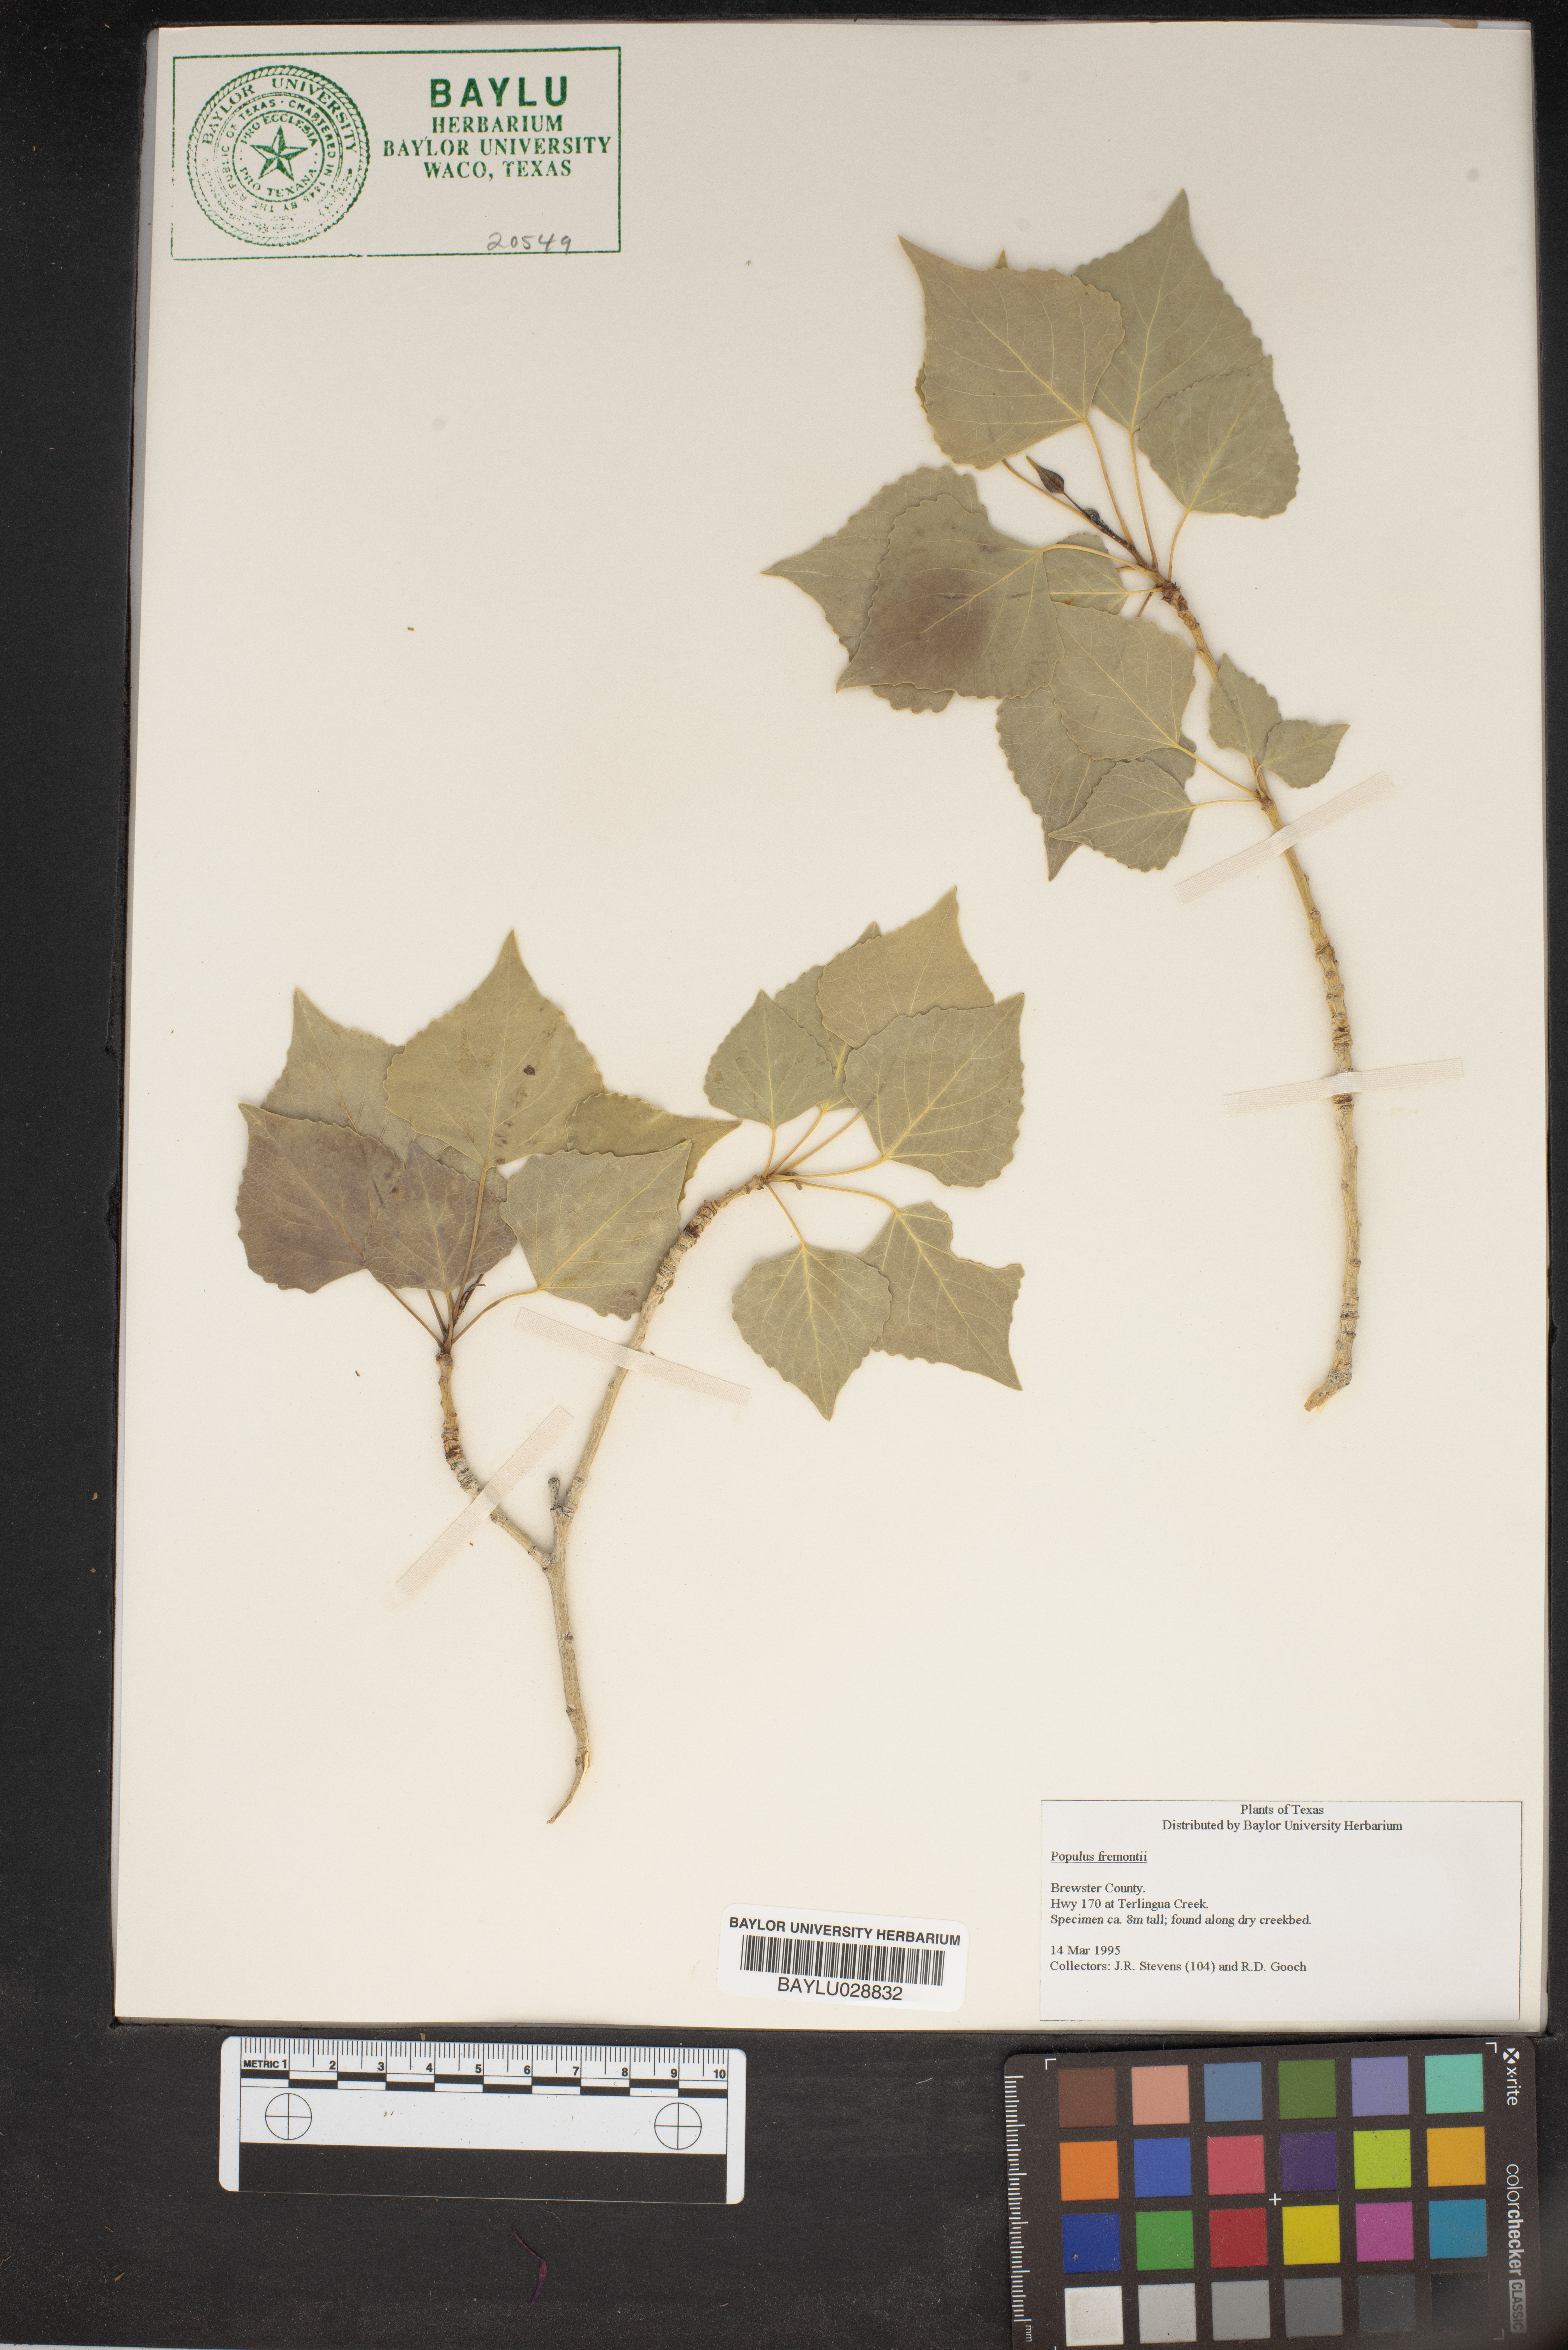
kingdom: Plantae
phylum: Tracheophyta
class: Magnoliopsida
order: Malpighiales
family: Salicaceae
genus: Populus
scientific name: Populus fremontii
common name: Fremont's cottonwood
